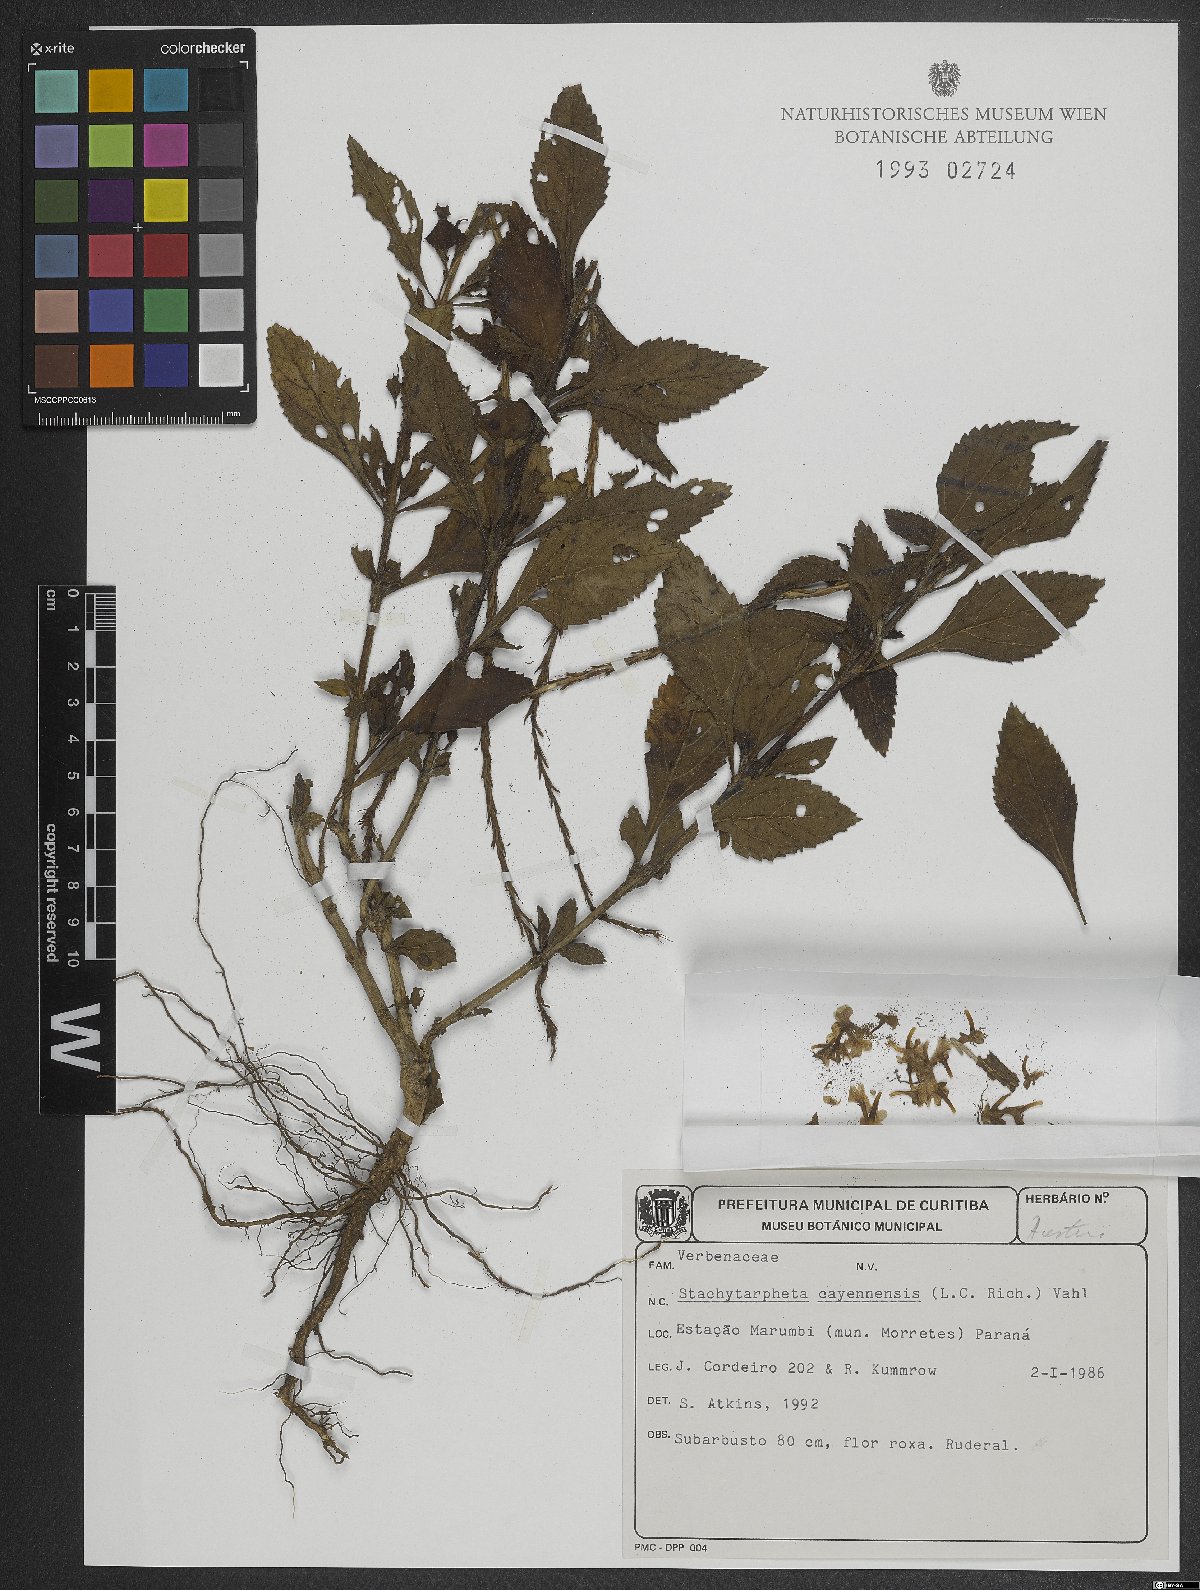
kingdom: Plantae
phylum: Tracheophyta
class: Magnoliopsida
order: Lamiales
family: Verbenaceae
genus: Stachytarpheta
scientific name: Stachytarpheta cayennensis
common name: Cayenne porterweed
